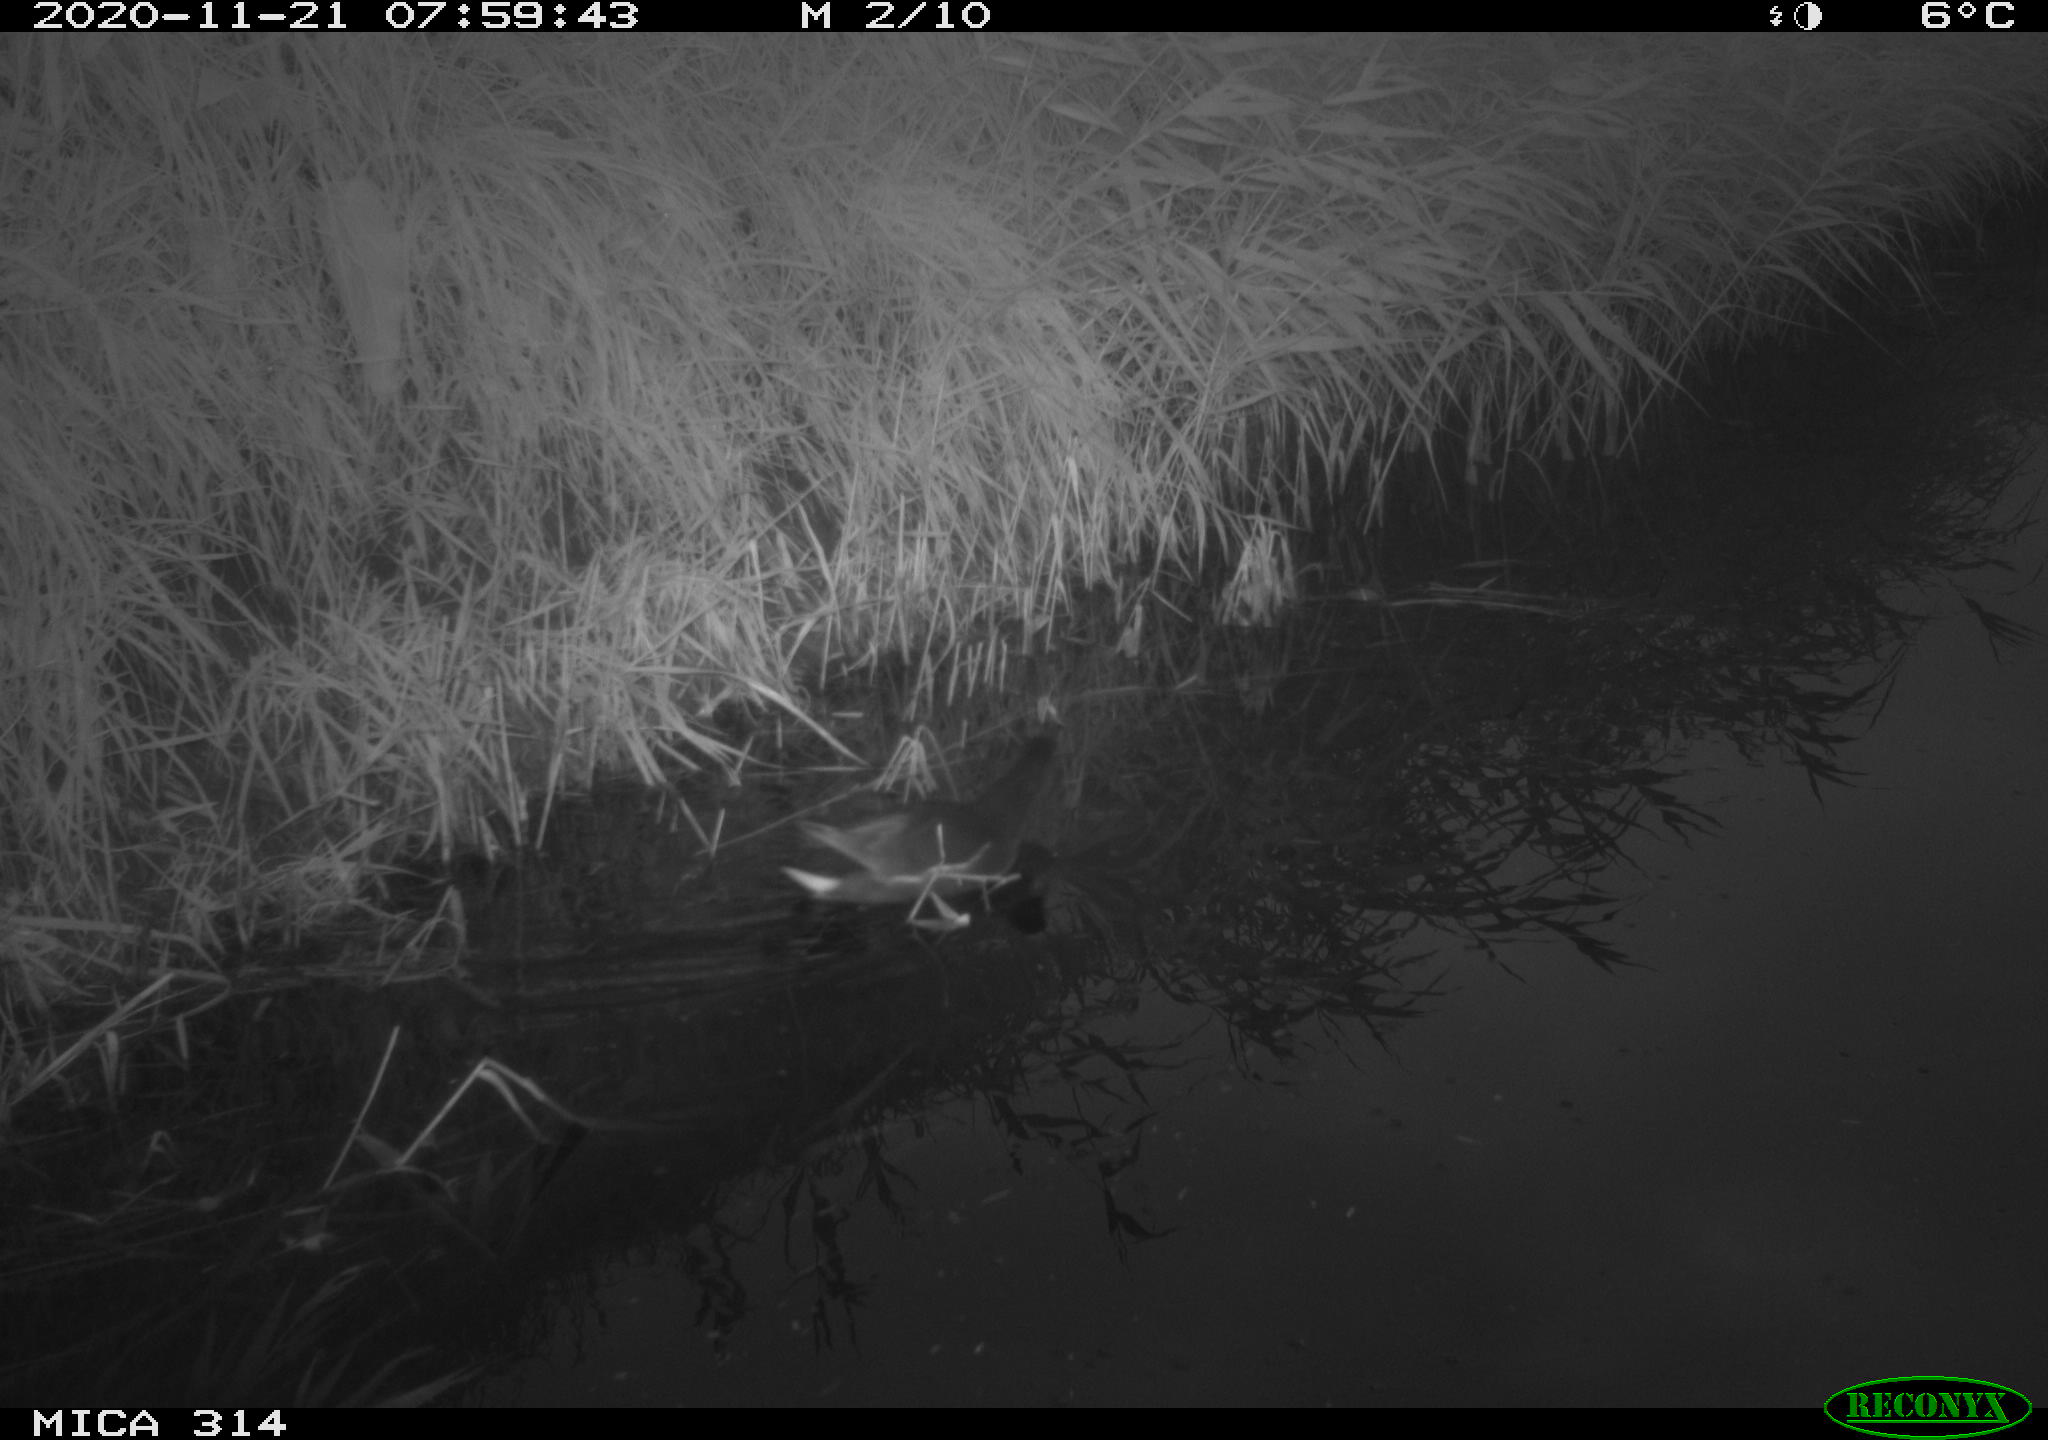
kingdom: Animalia
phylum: Chordata
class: Aves
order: Gruiformes
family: Rallidae
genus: Gallinula
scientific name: Gallinula chloropus
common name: Common moorhen
